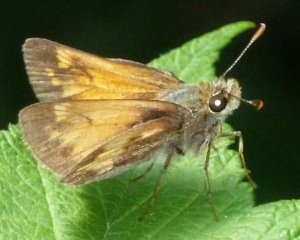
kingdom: Animalia
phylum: Arthropoda
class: Insecta
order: Lepidoptera
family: Hesperiidae
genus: Lon
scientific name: Lon hobomok
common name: Hobomok Skipper
